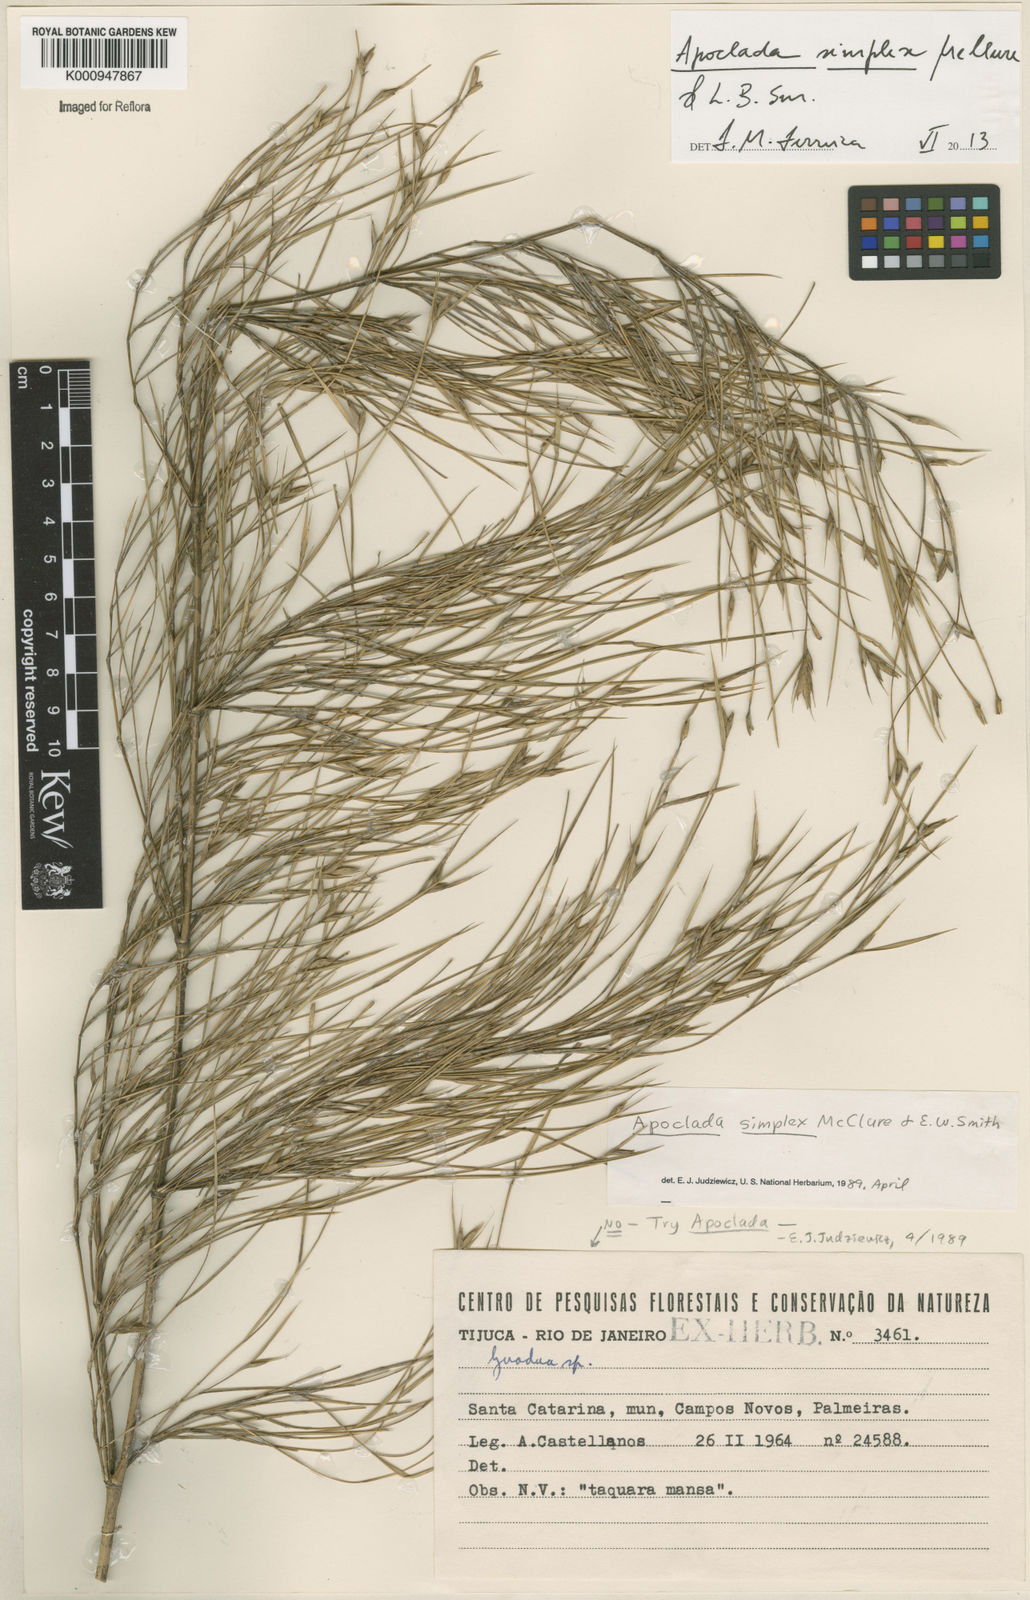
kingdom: Plantae
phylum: Tracheophyta
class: Liliopsida
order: Poales
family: Poaceae
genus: Apoclada
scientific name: Apoclada simplex
